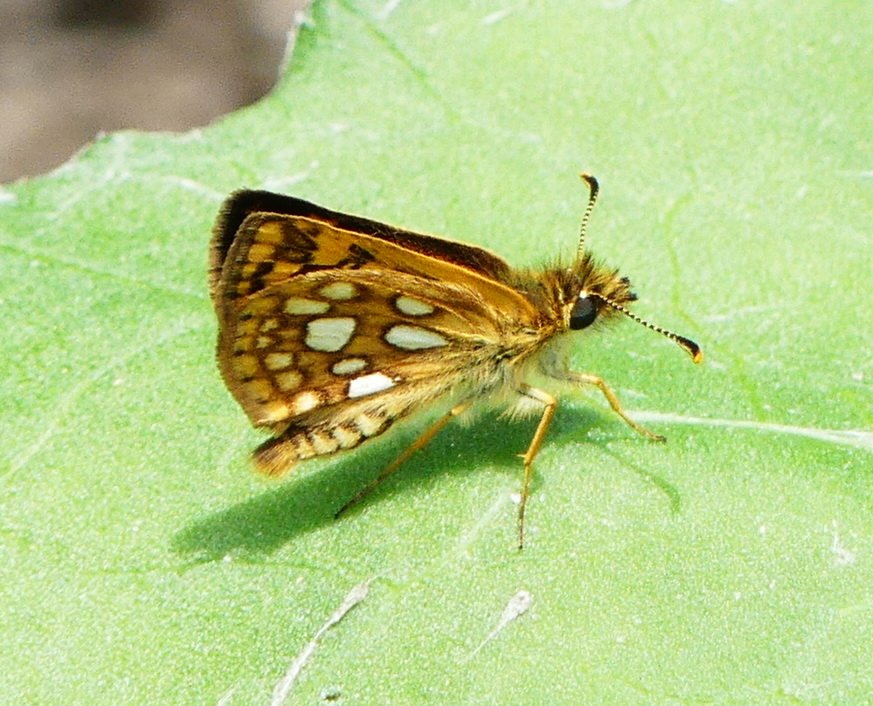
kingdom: Animalia
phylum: Arthropoda
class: Insecta
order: Lepidoptera
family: Hesperiidae
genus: Carterocephalus
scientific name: Carterocephalus palaemon
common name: Chequered Skipper
